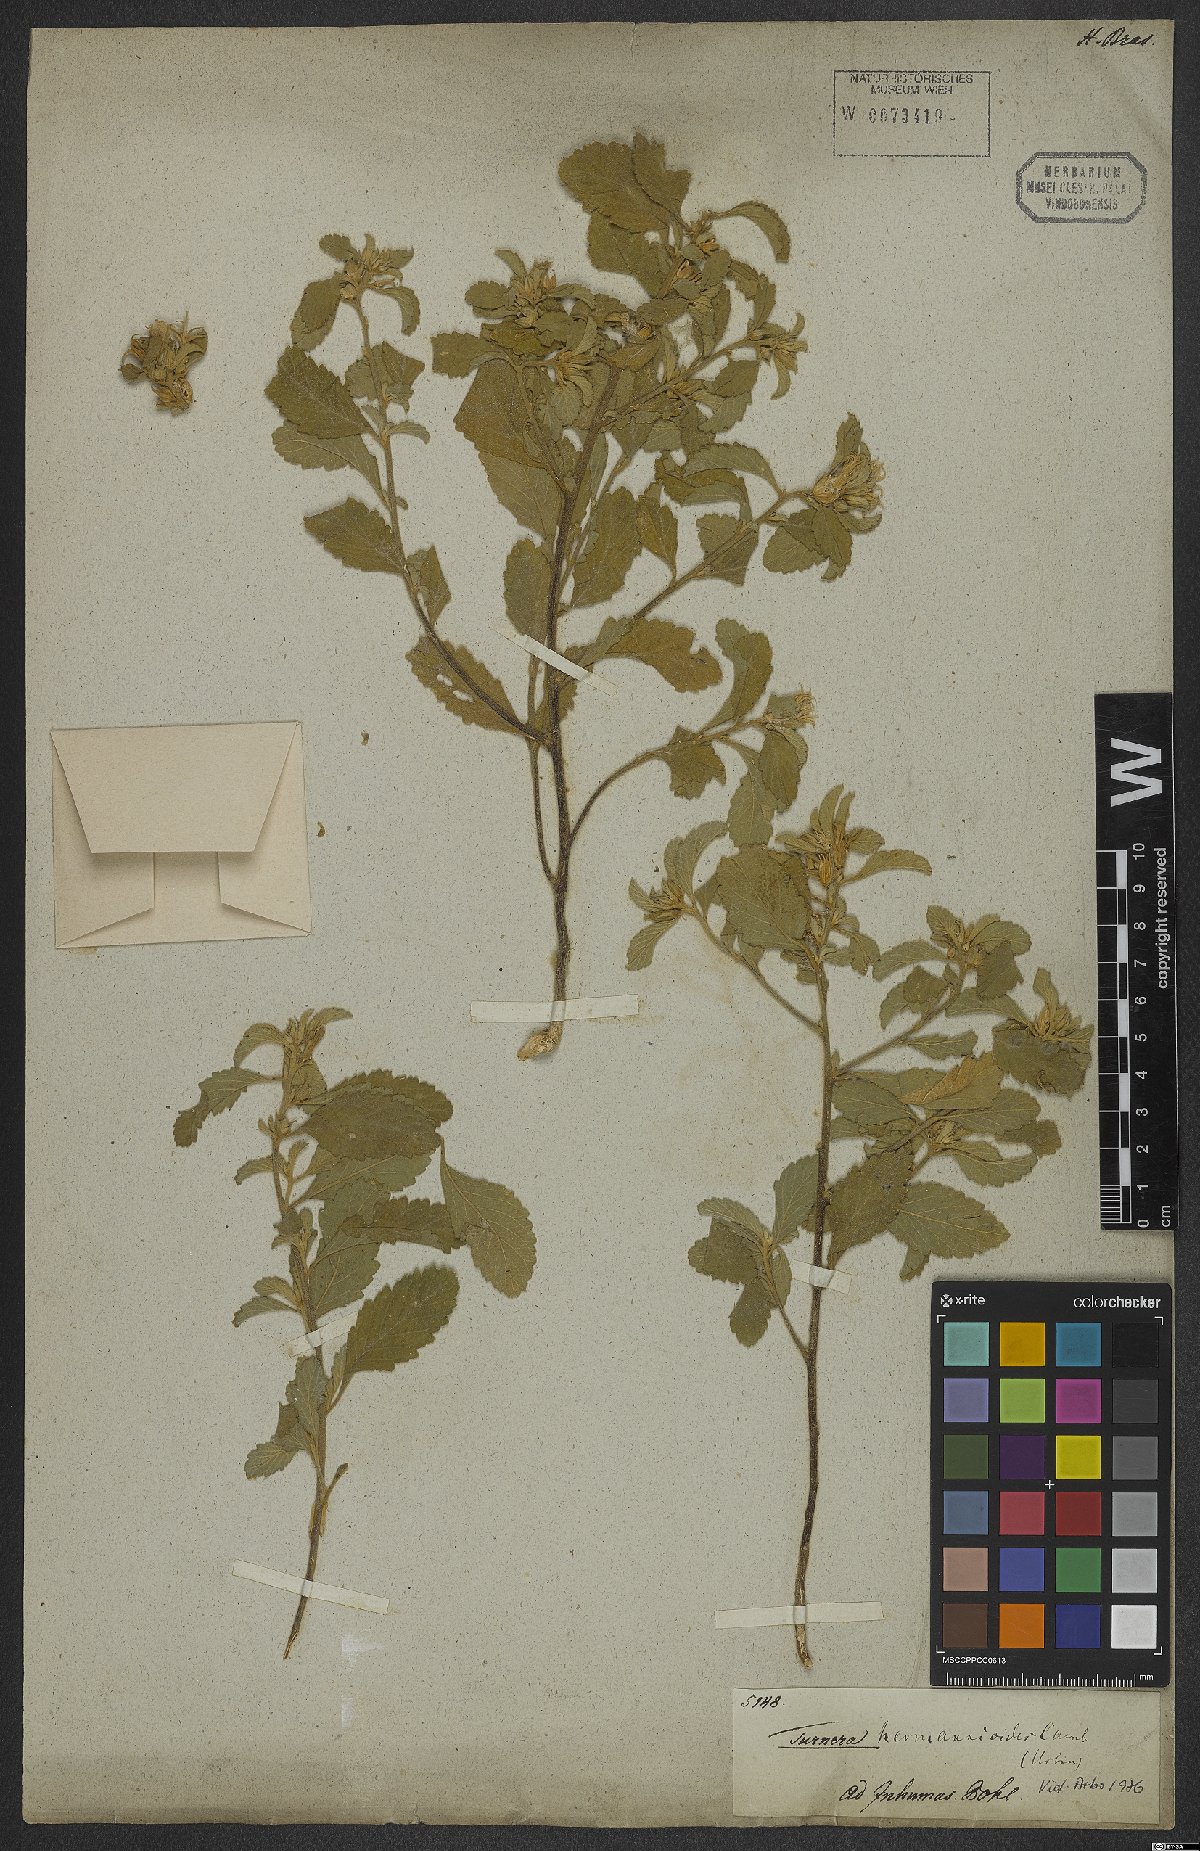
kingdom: Plantae
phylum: Tracheophyta
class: Magnoliopsida
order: Malpighiales
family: Turneraceae
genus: Turnera
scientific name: Turnera hermannioides
